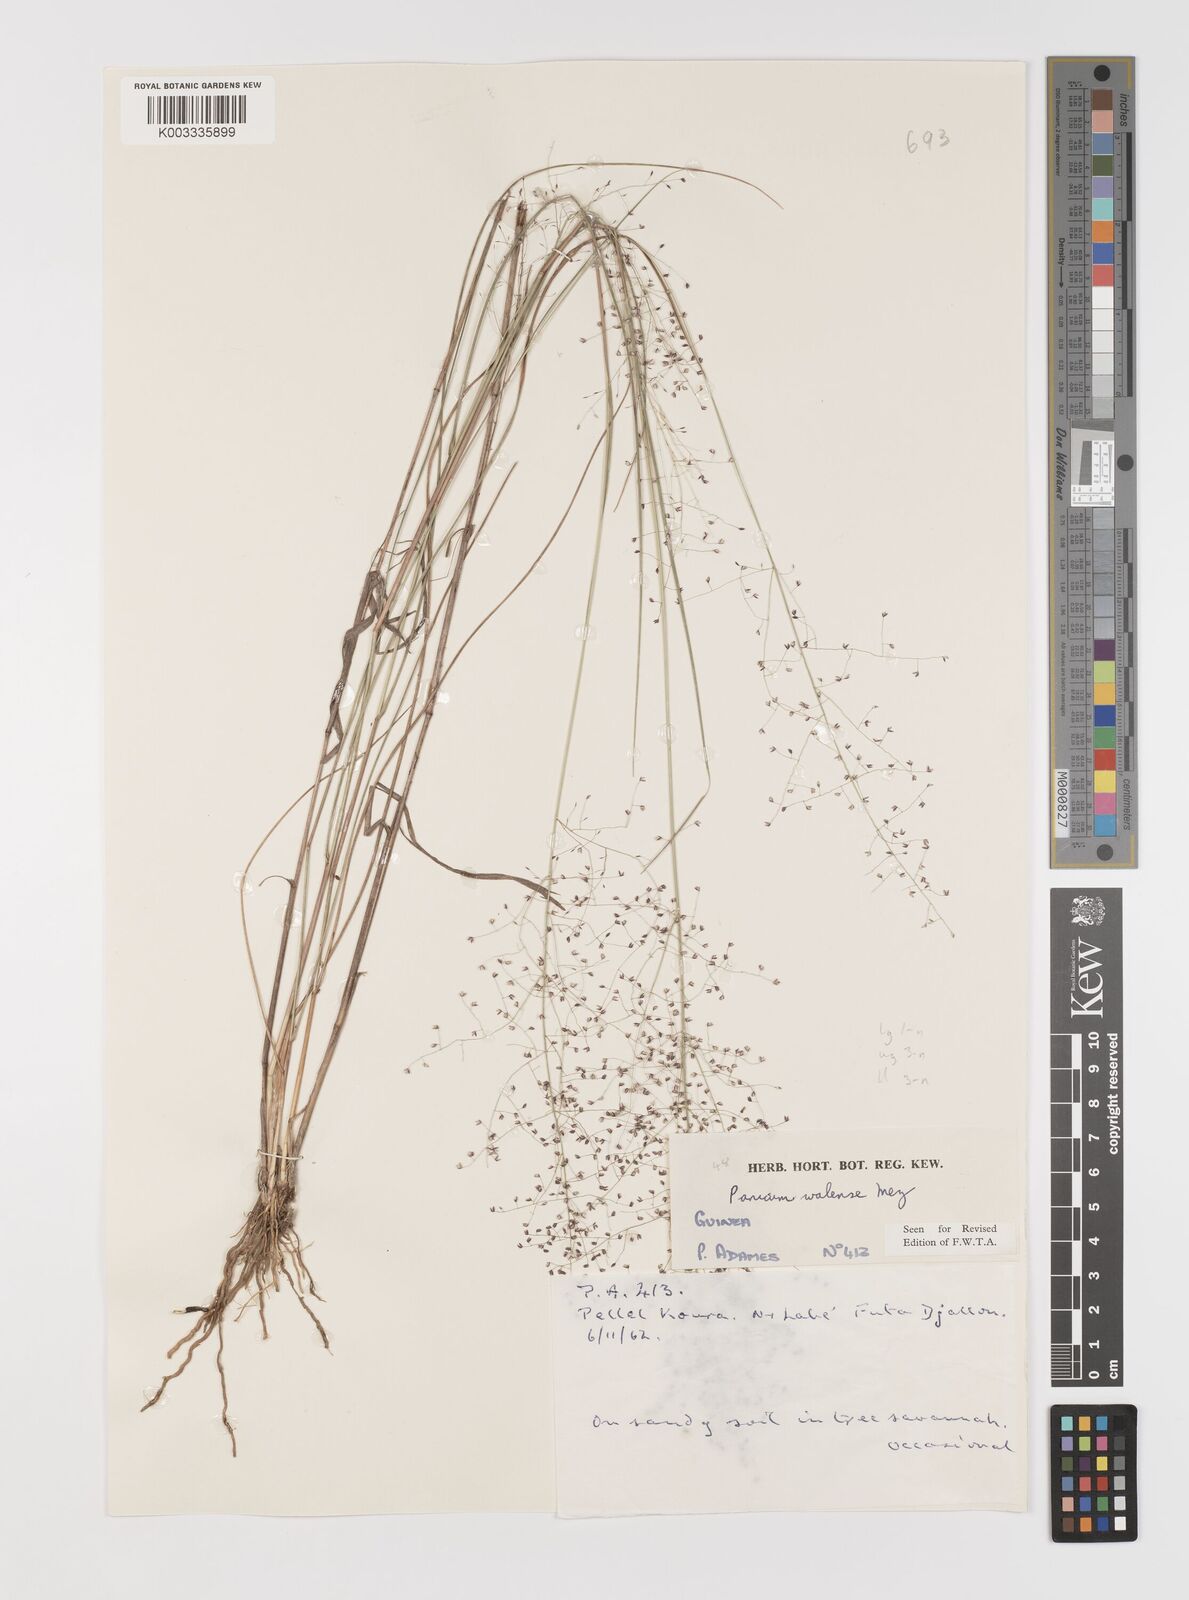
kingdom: Plantae
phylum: Tracheophyta
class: Liliopsida
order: Poales
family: Poaceae
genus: Panicum
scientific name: Panicum humile
